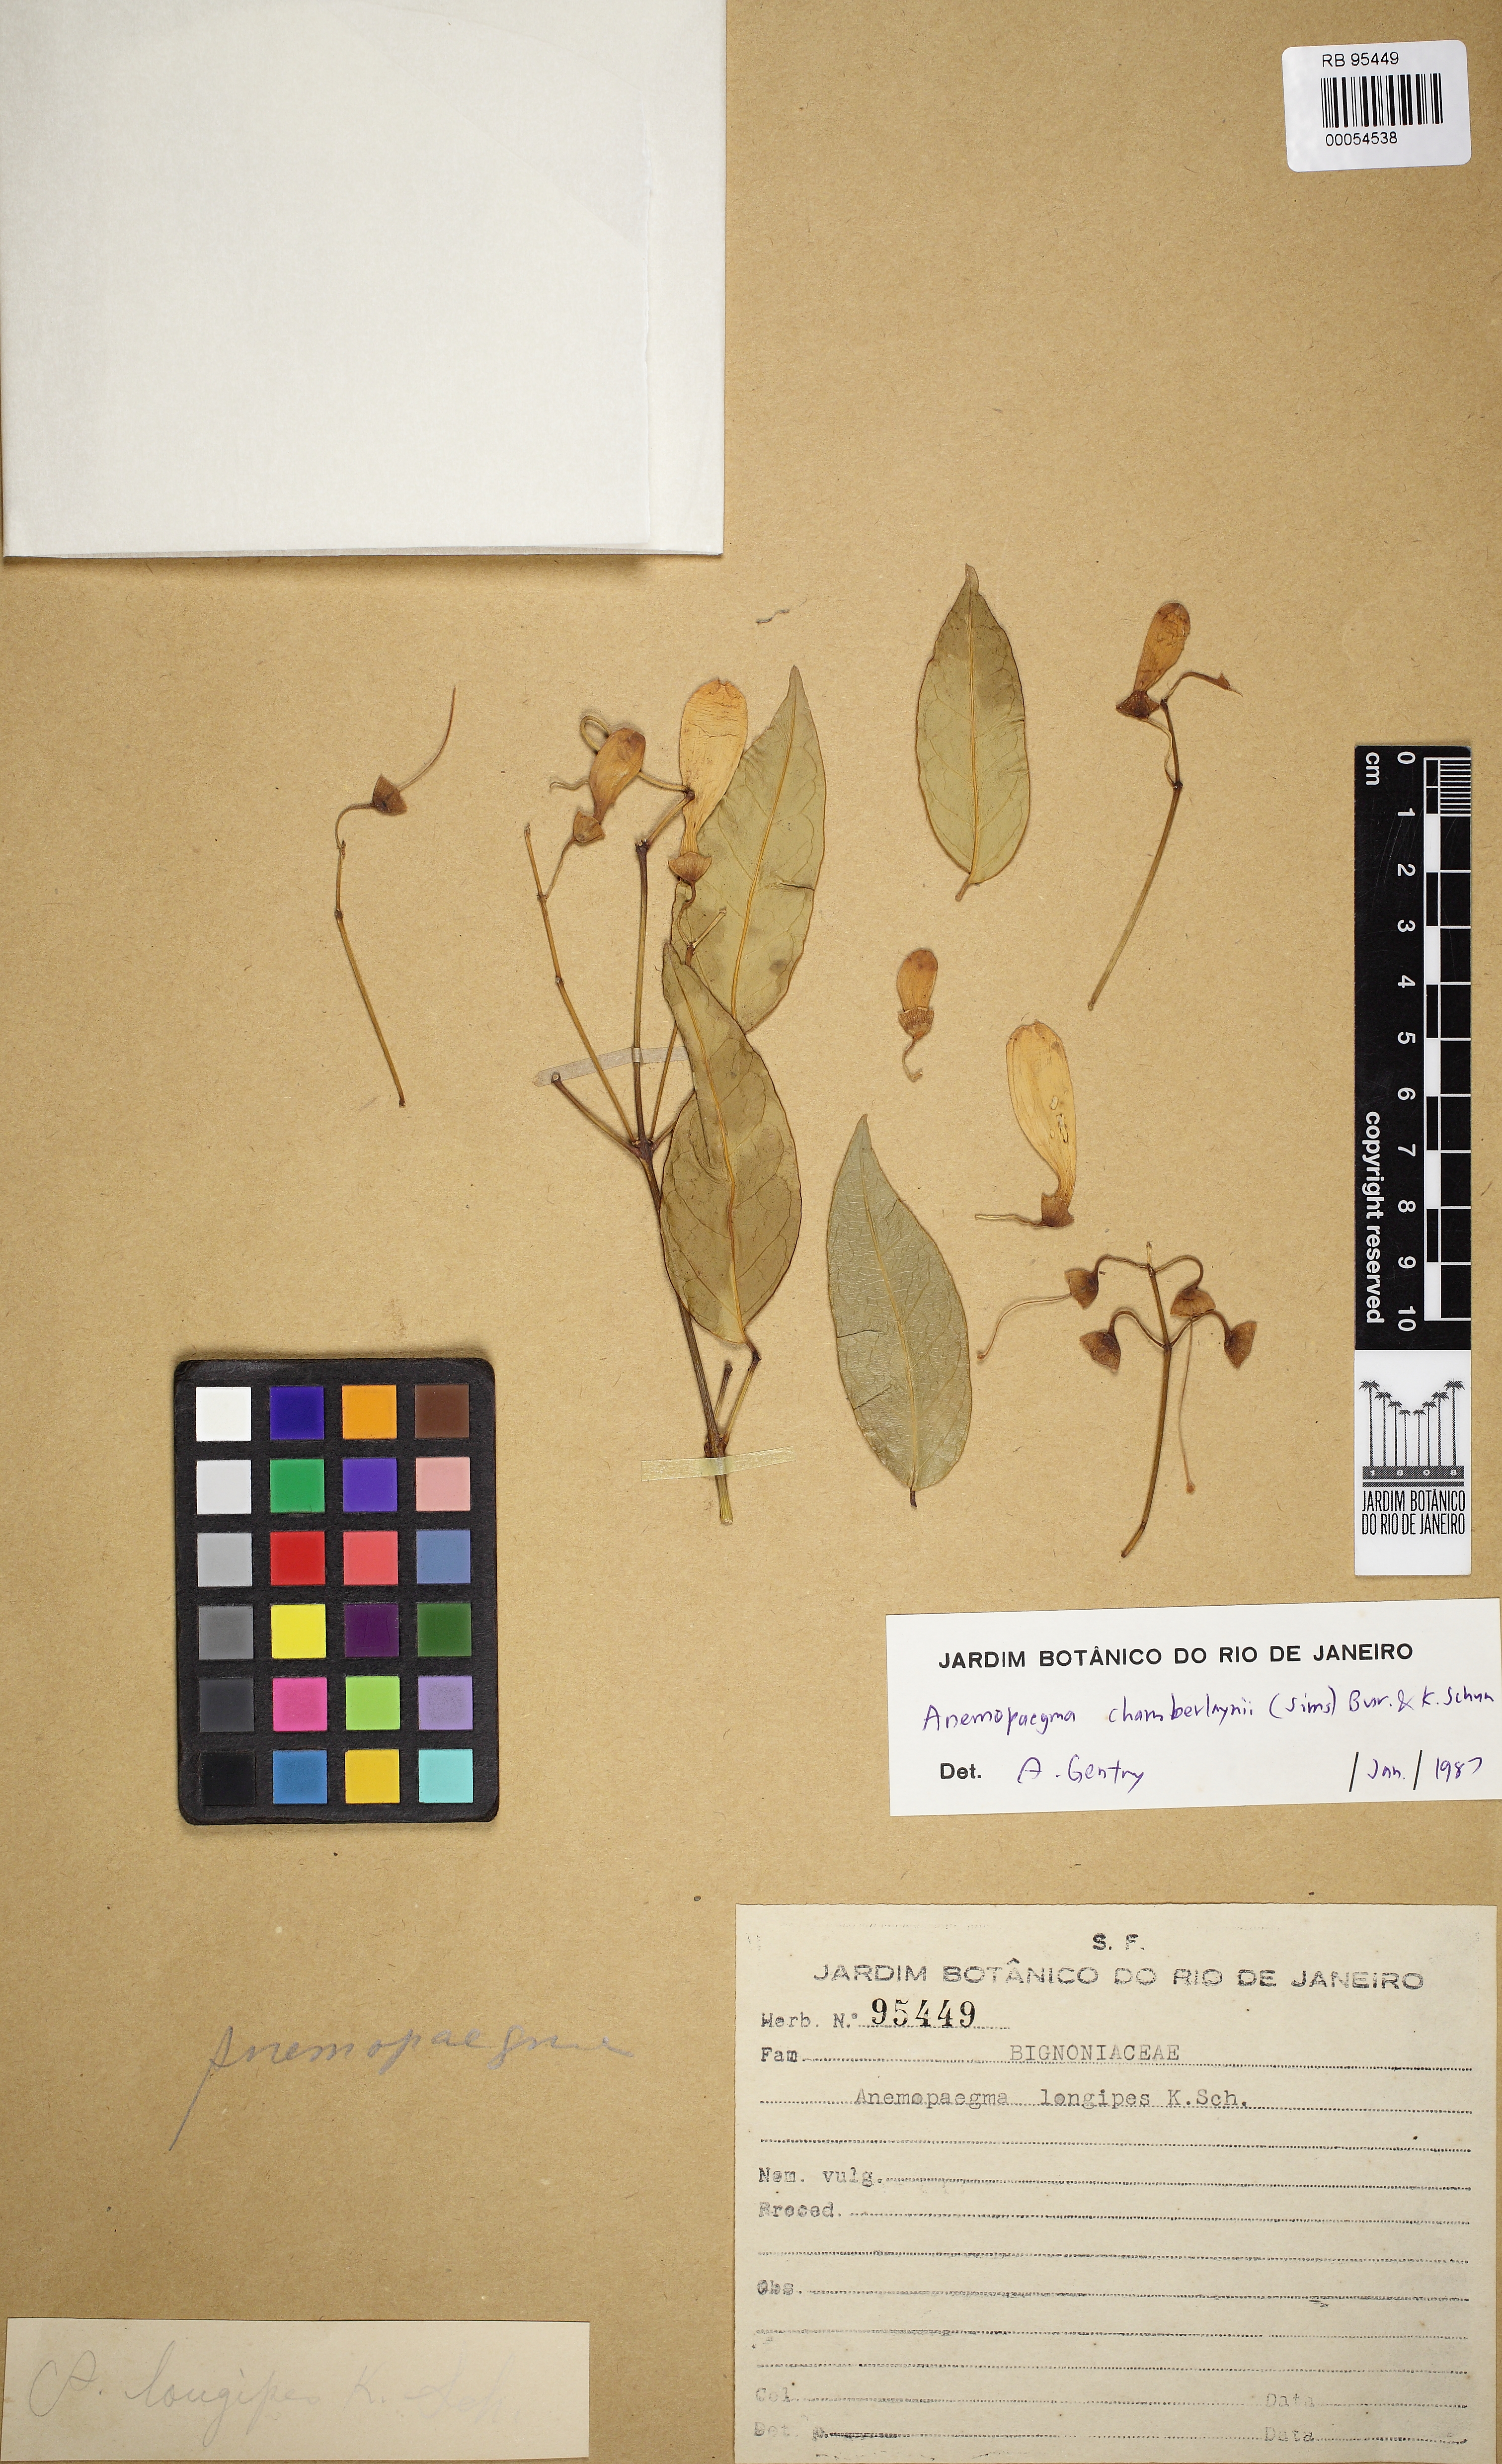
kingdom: Plantae
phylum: Tracheophyta
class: Magnoliopsida
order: Lamiales
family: Bignoniaceae
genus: Anemopaegma
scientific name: Anemopaegma chamberlaynii
